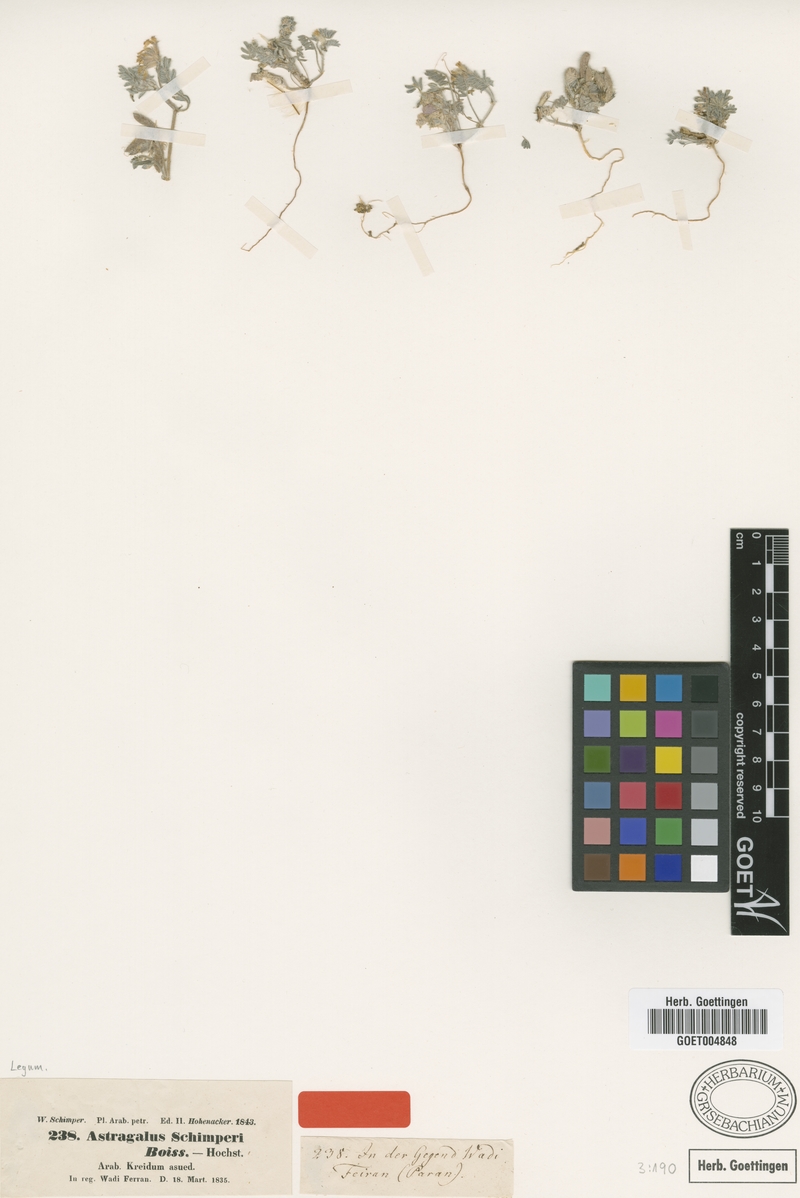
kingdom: Plantae
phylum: Tracheophyta
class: Magnoliopsida
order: Fabales
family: Fabaceae
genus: Astragalus
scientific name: Astragalus schimperi
